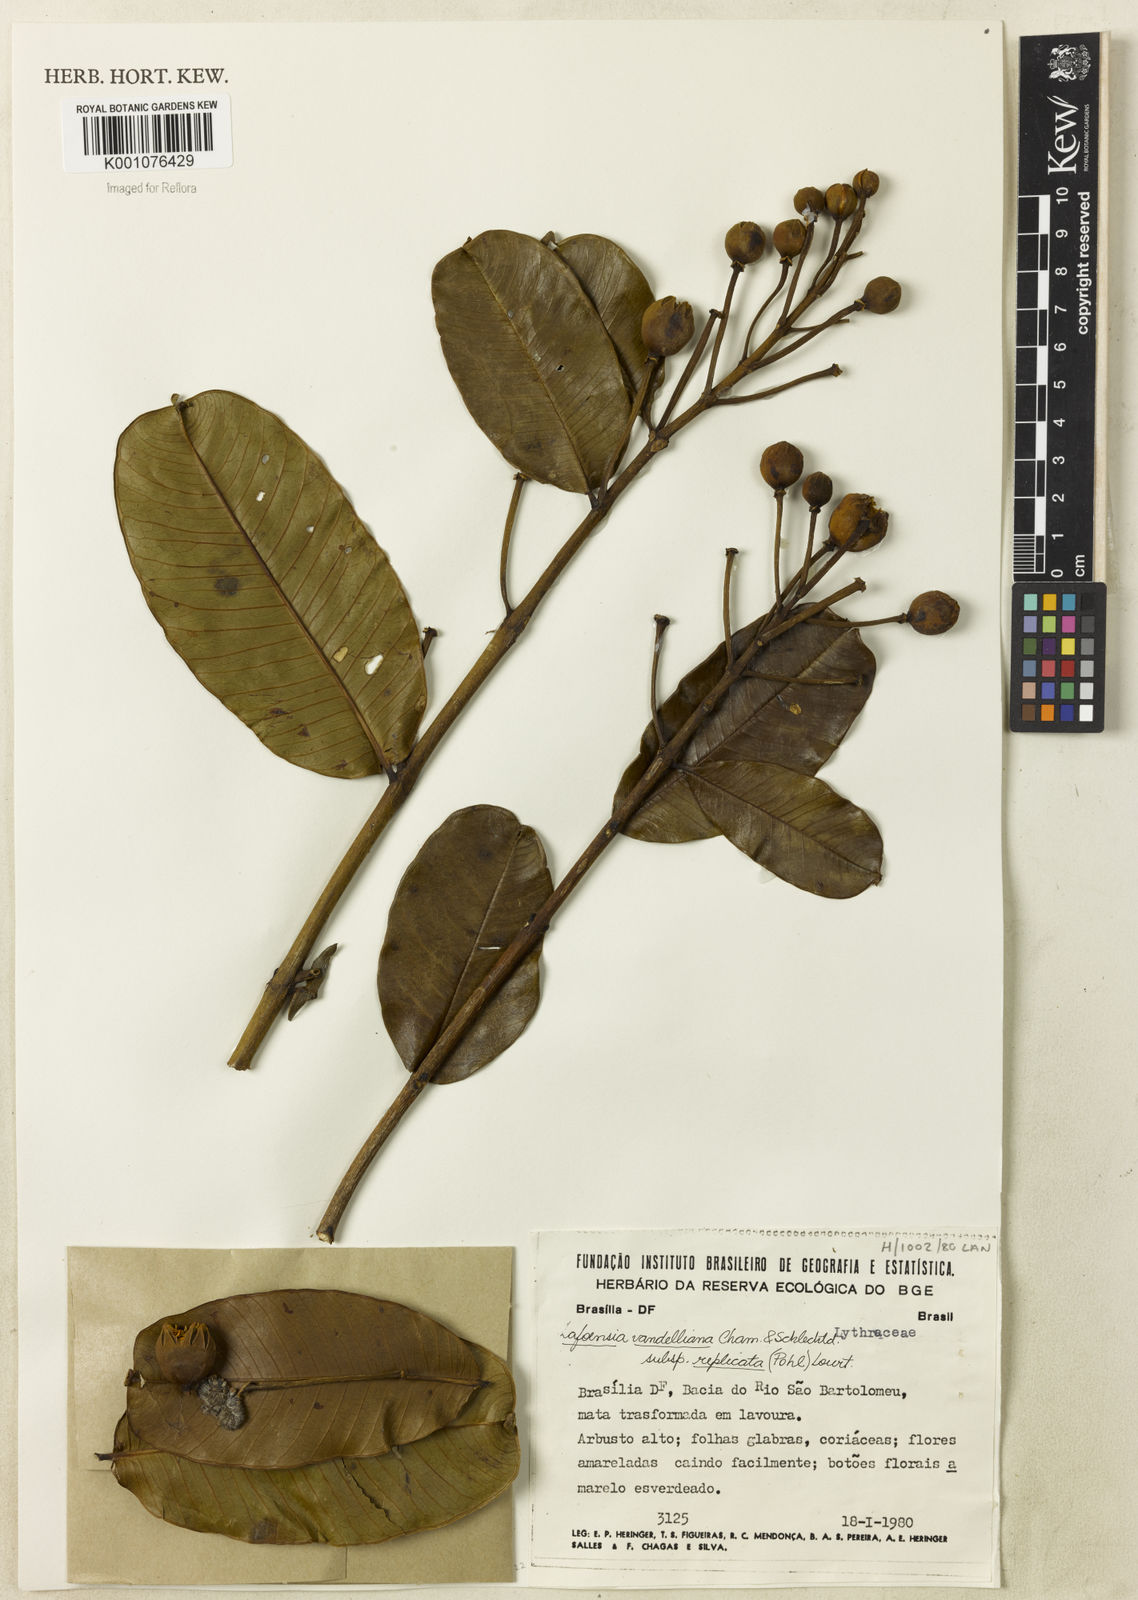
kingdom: Plantae
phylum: Tracheophyta
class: Magnoliopsida
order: Myrtales
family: Lythraceae
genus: Lafoensia
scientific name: Lafoensia vandelliana
